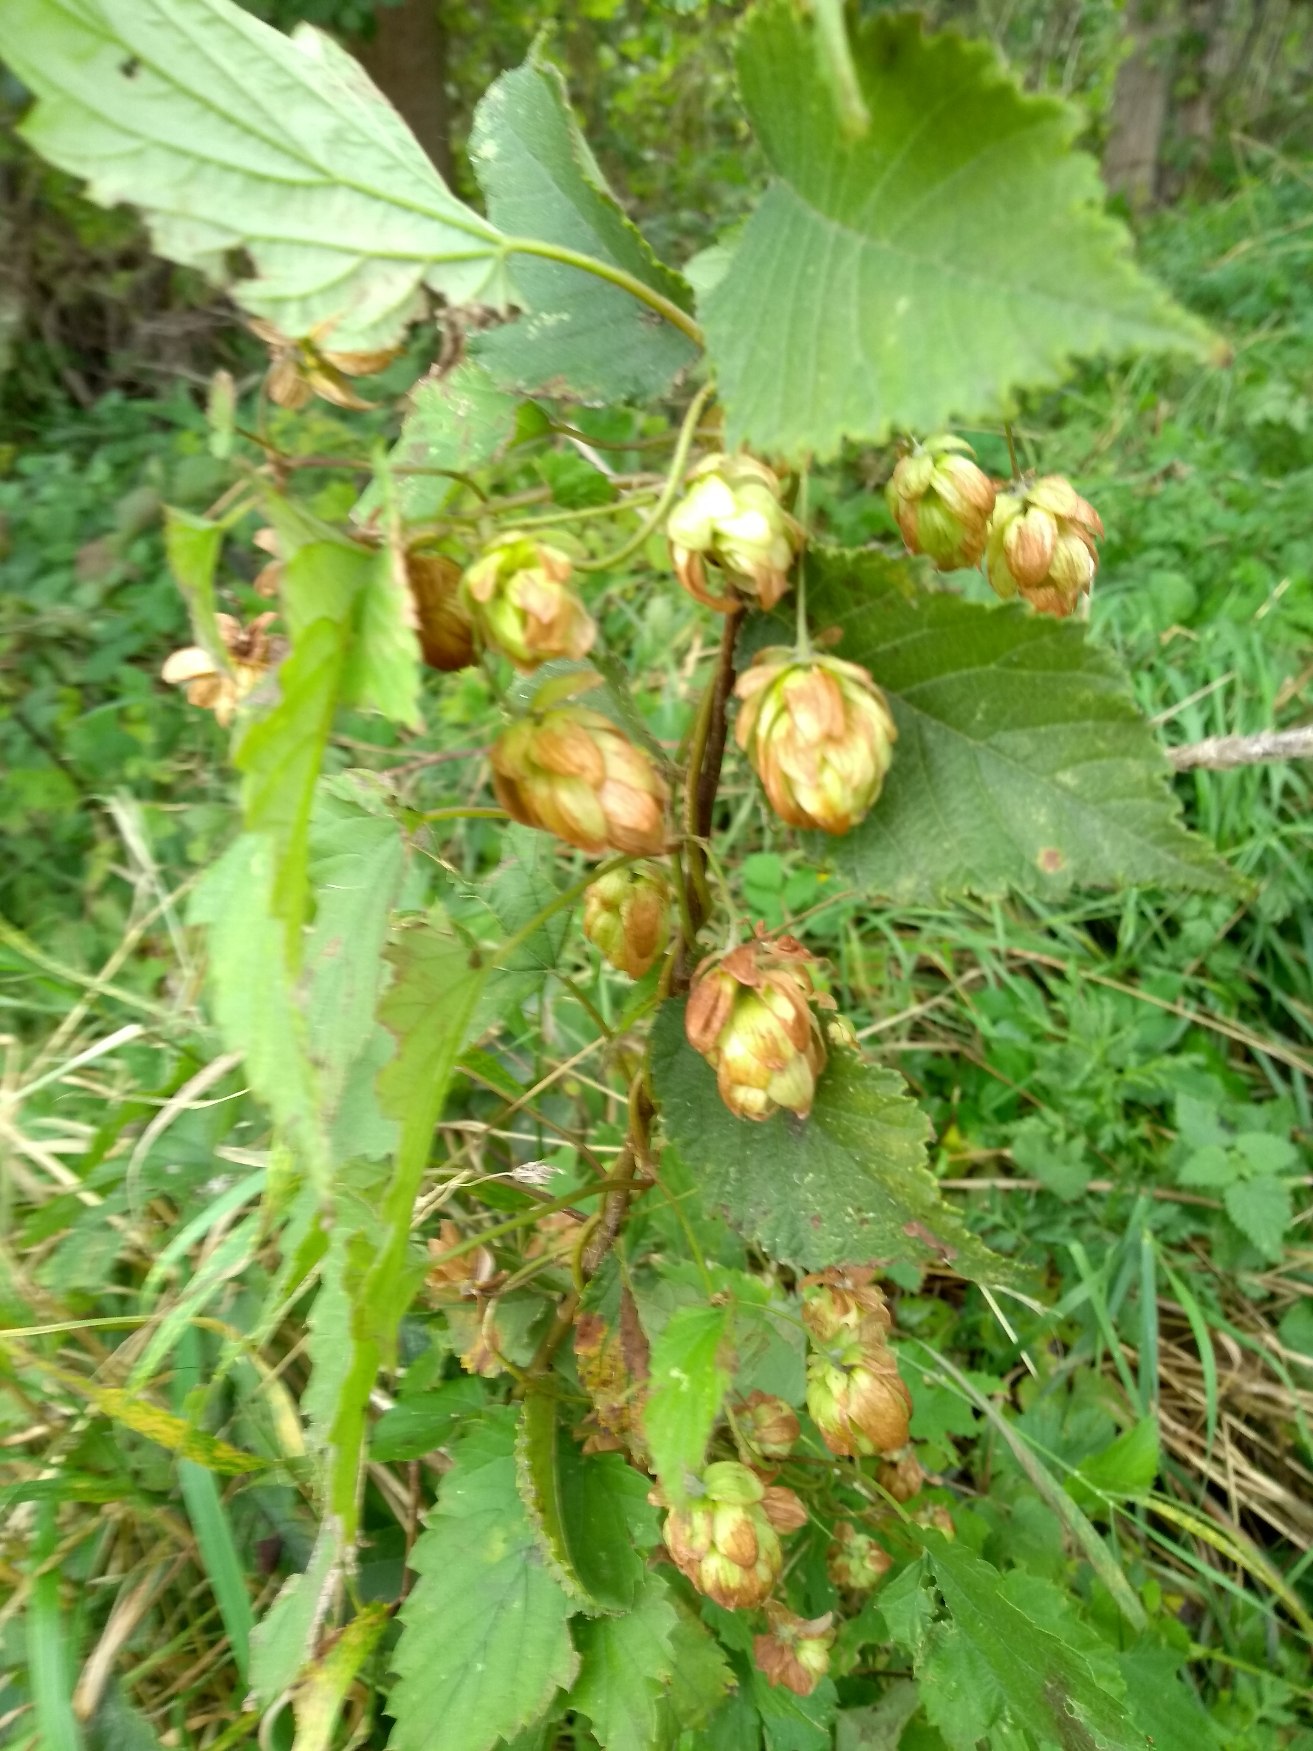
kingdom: Plantae
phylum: Tracheophyta
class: Magnoliopsida
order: Rosales
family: Cannabaceae
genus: Humulus
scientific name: Humulus lupulus
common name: Humle
